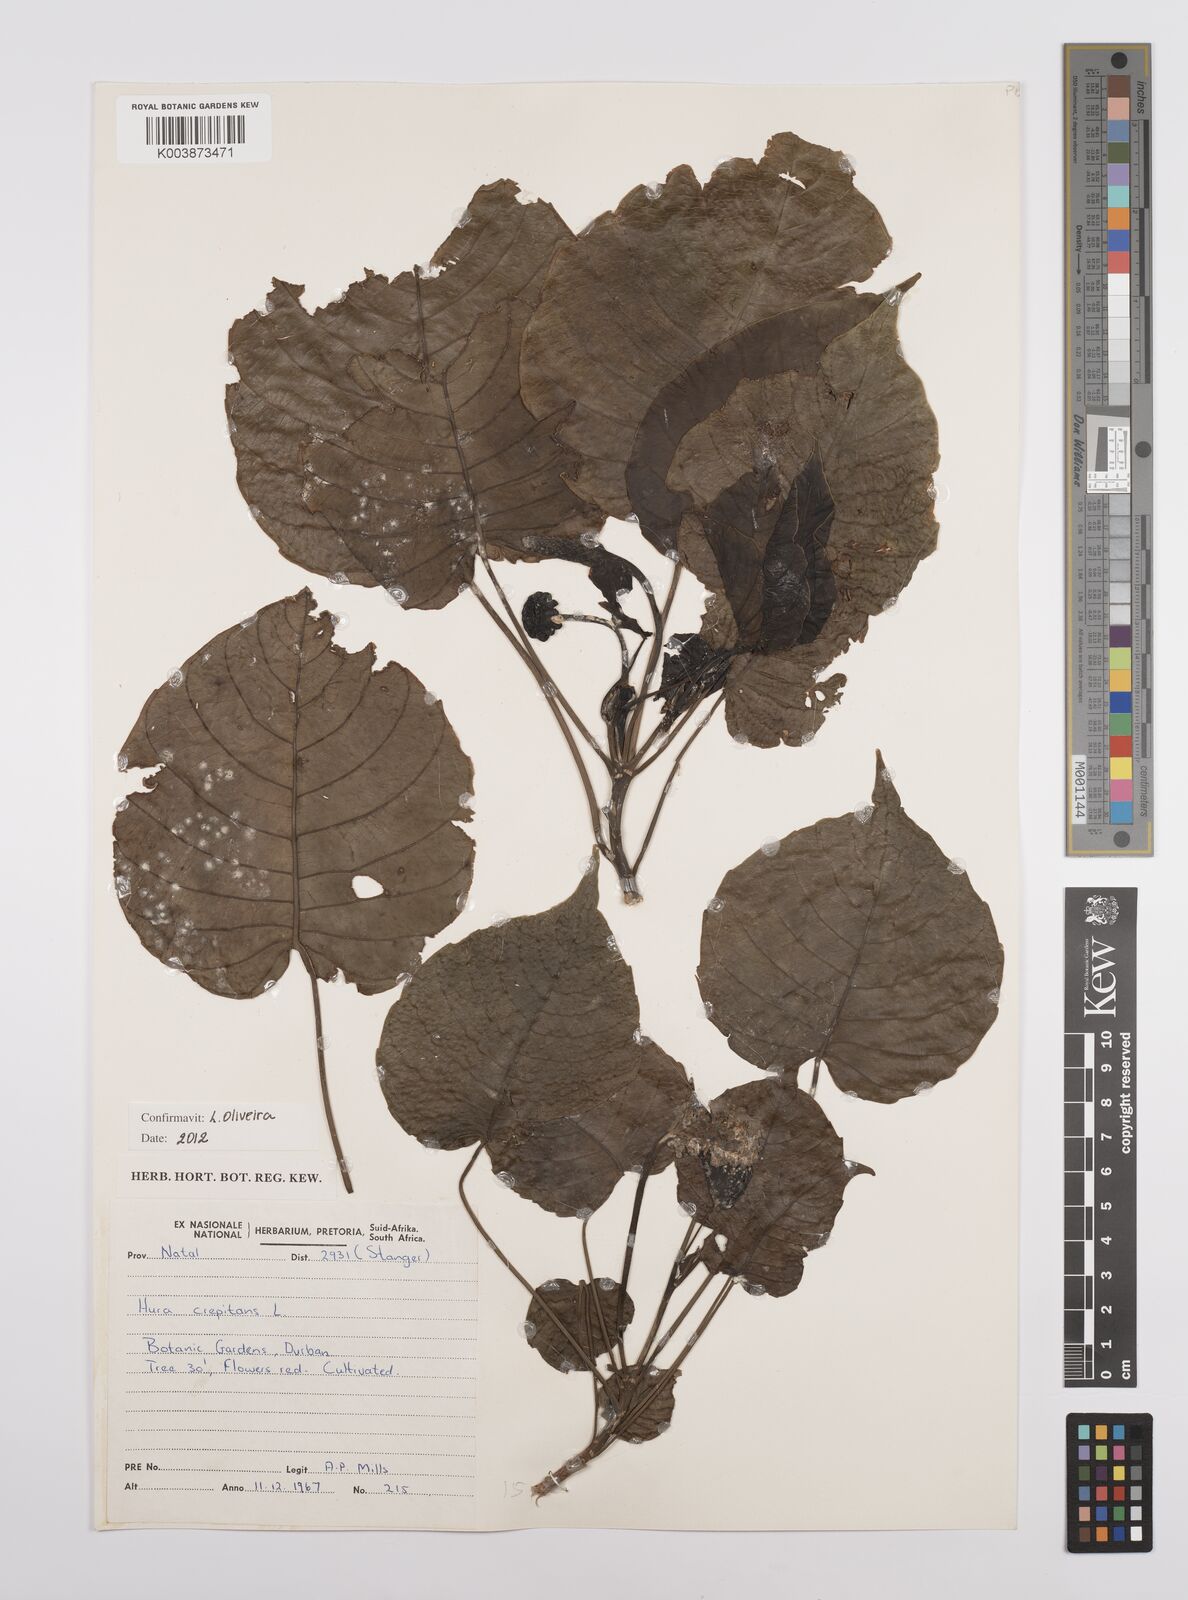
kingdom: Plantae
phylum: Tracheophyta
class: Magnoliopsida
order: Malpighiales
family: Euphorbiaceae
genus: Hura
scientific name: Hura crepitans
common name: Sandboxtree
